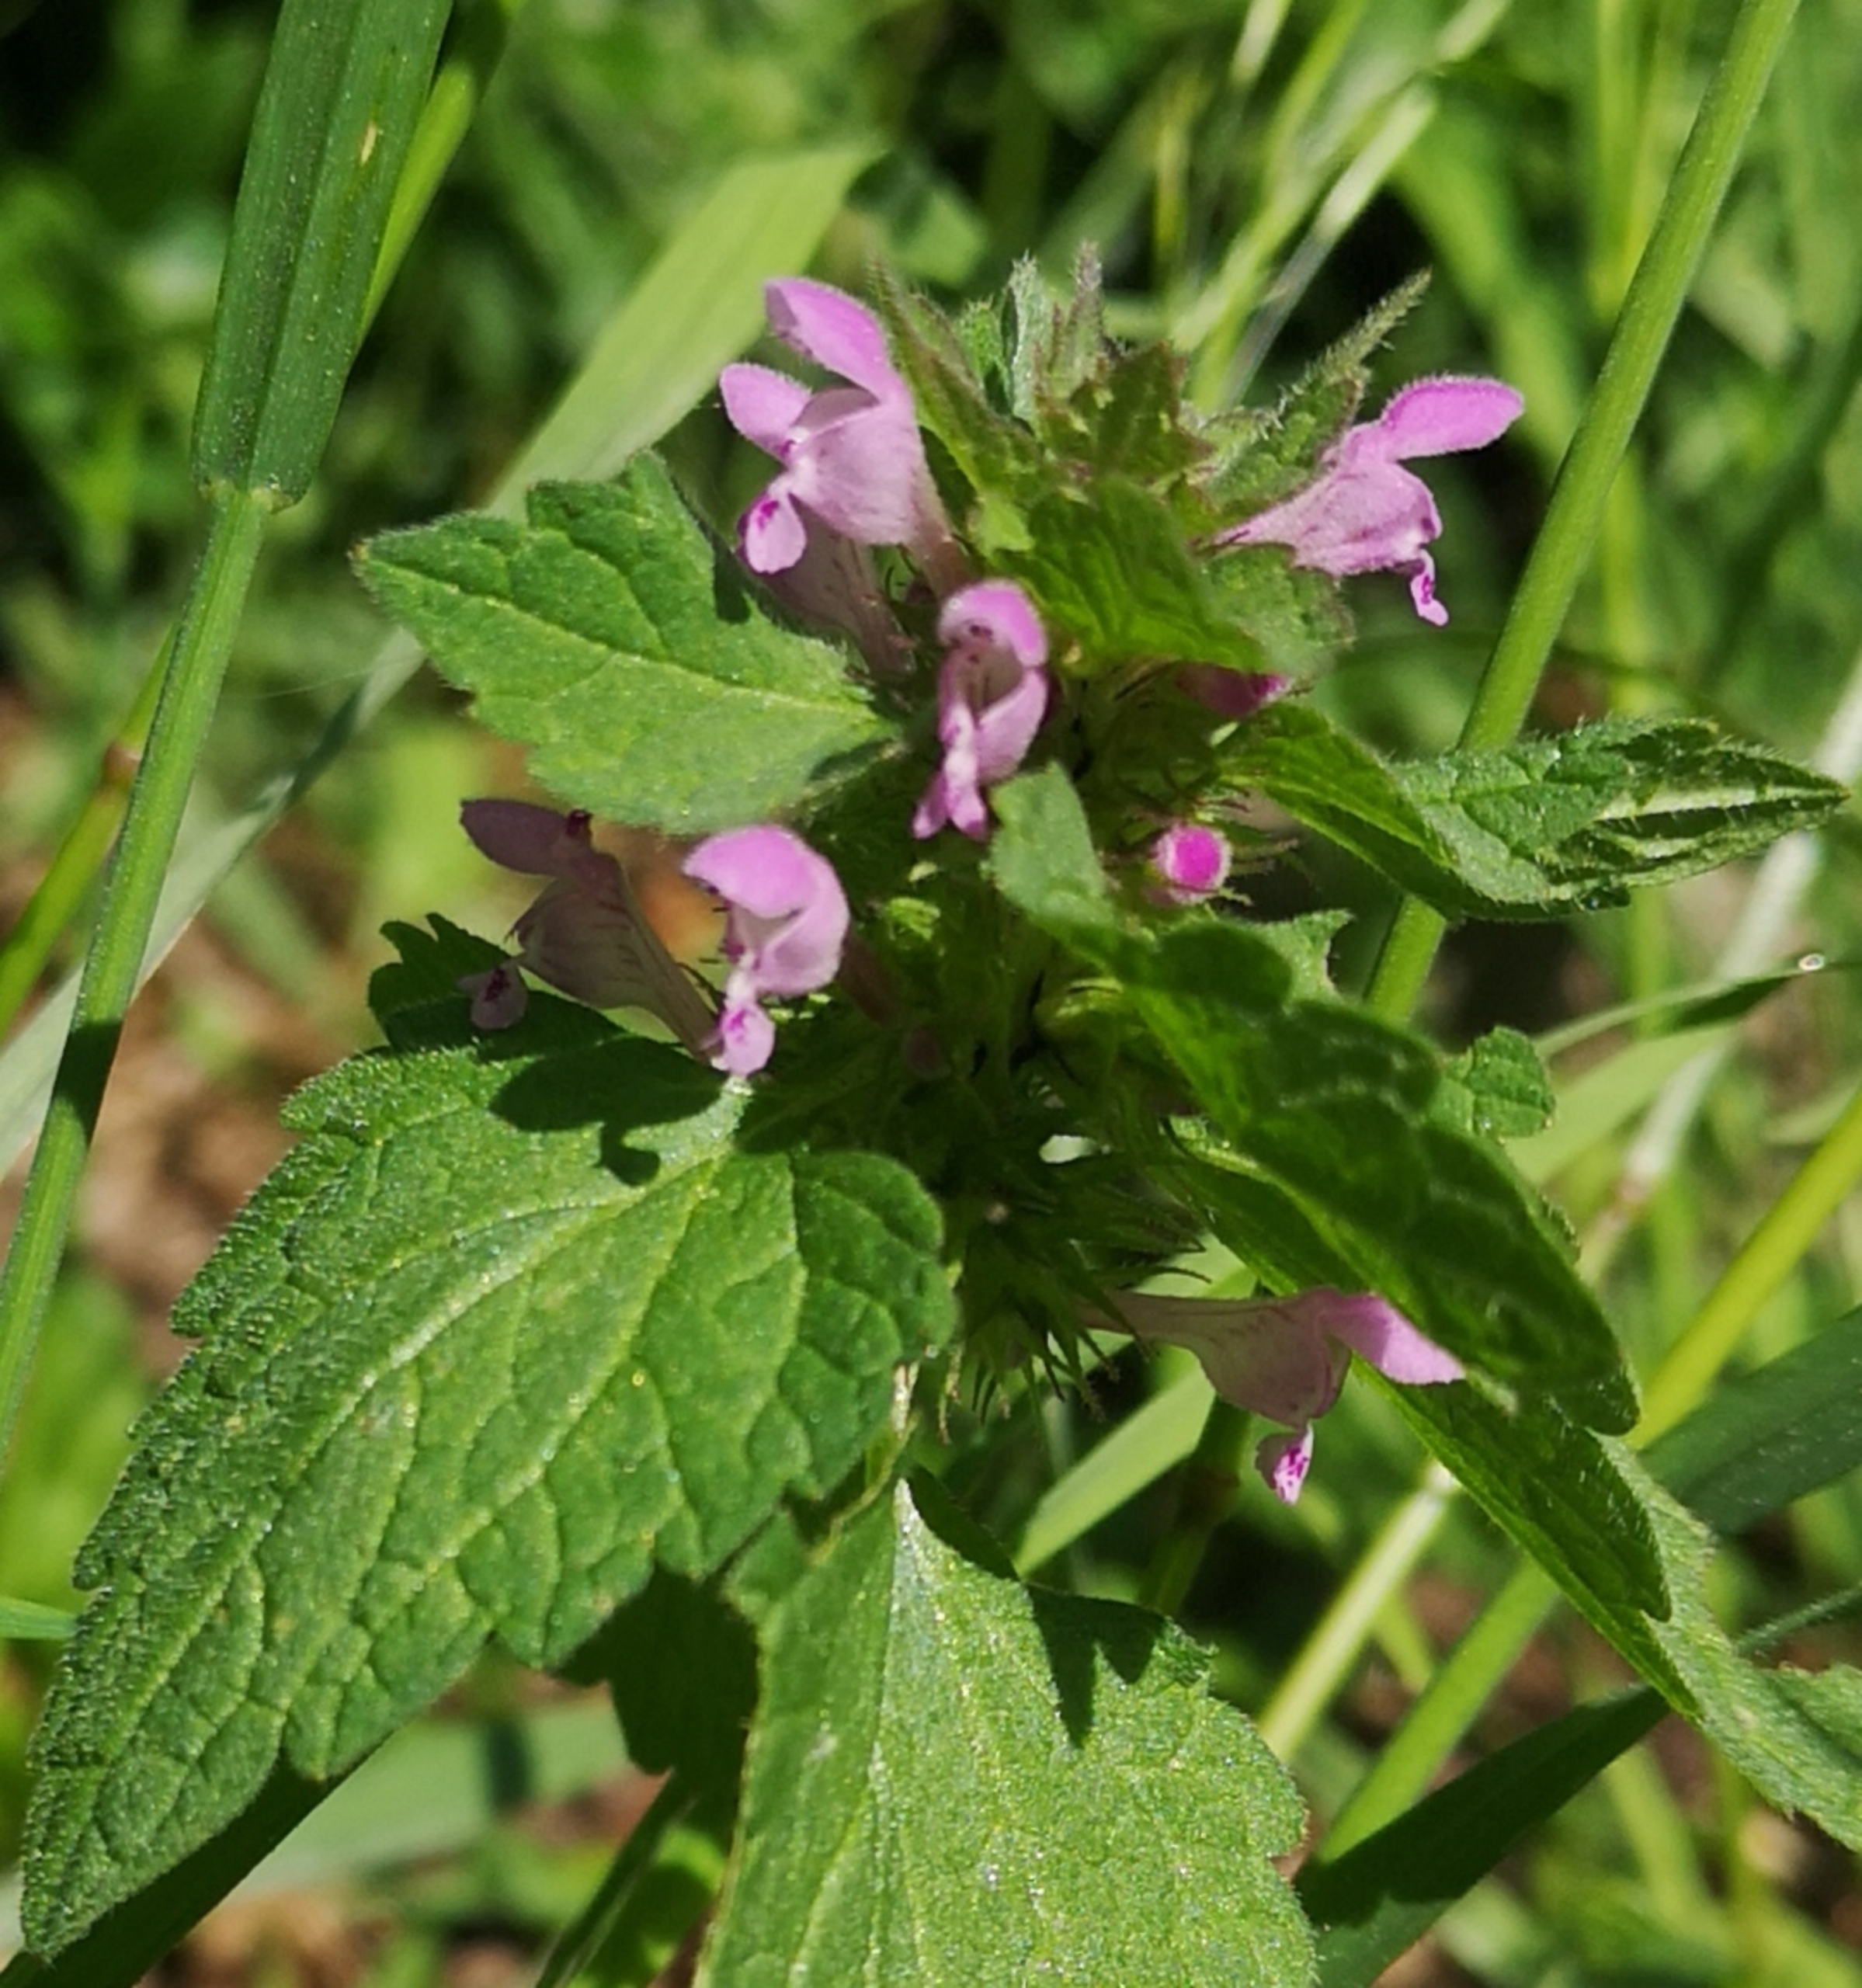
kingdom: Plantae
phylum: Tracheophyta
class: Magnoliopsida
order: Lamiales
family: Lamiaceae
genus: Lamium
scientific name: Lamium purpureum
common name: Rød tvetand
